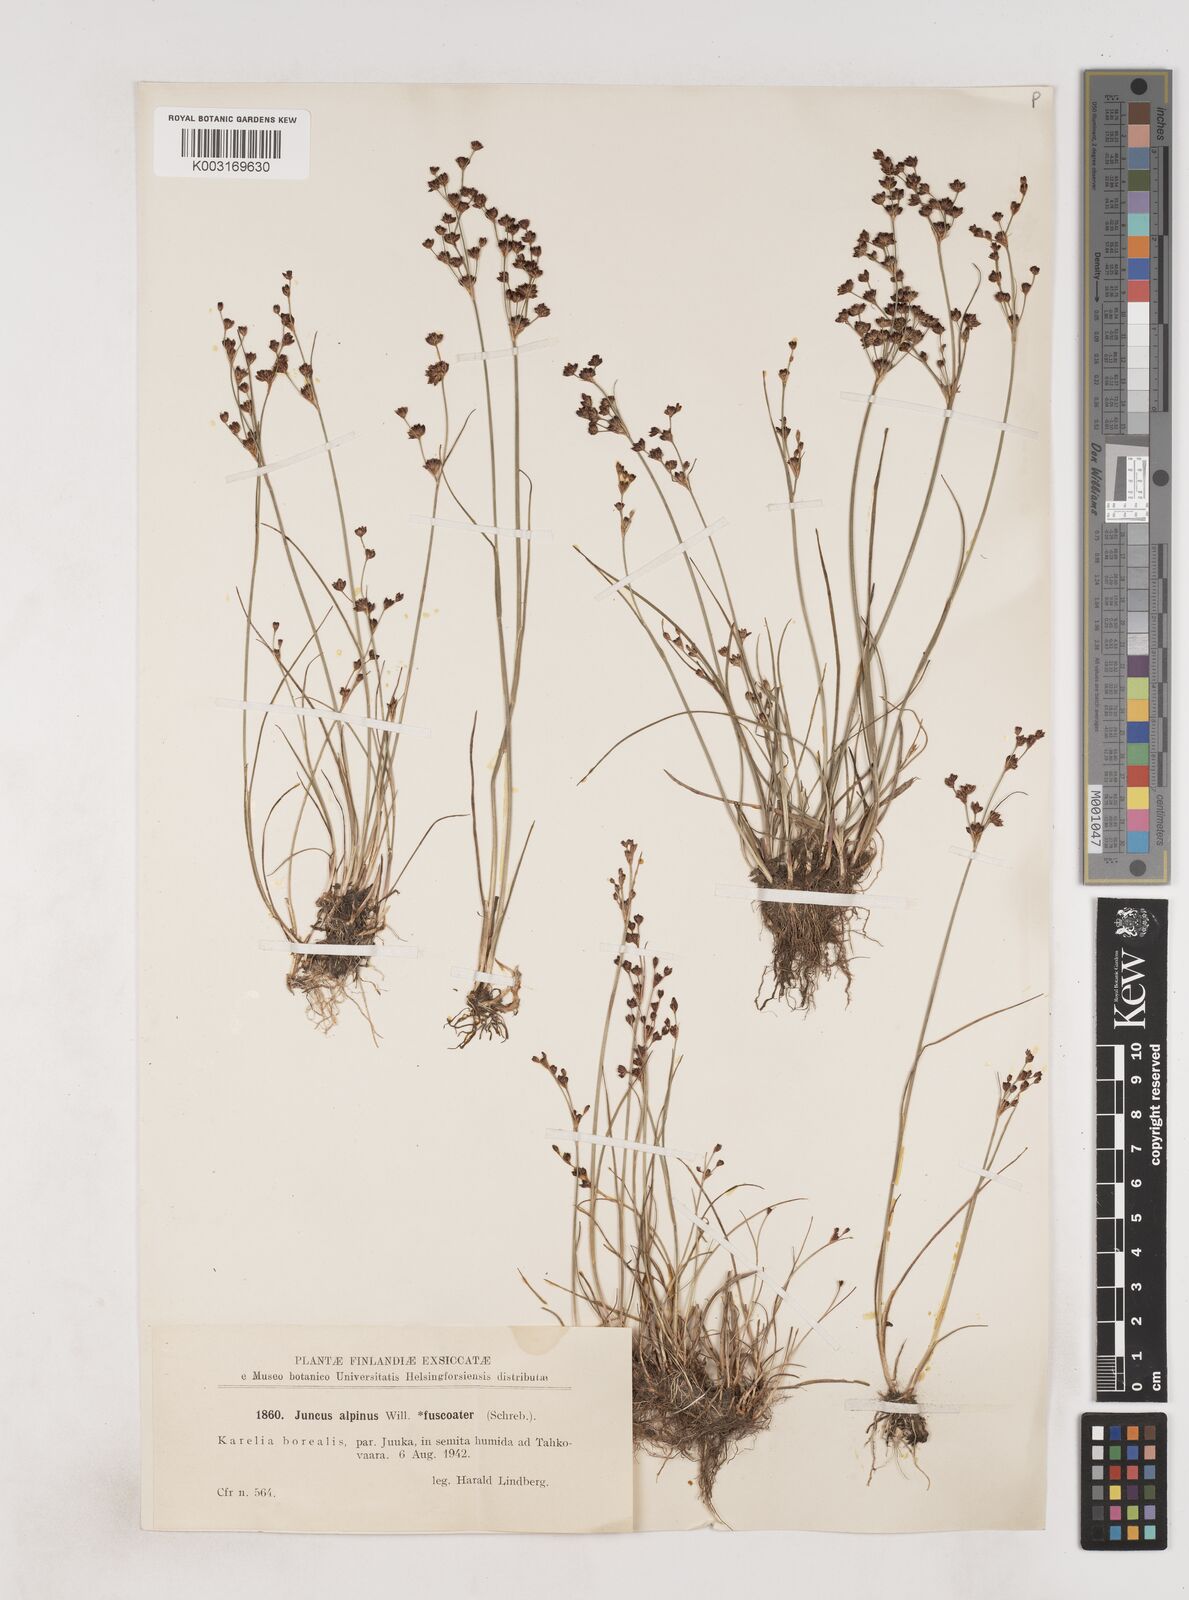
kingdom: Plantae
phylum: Tracheophyta
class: Liliopsida
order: Poales
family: Juncaceae
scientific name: Juncaceae
